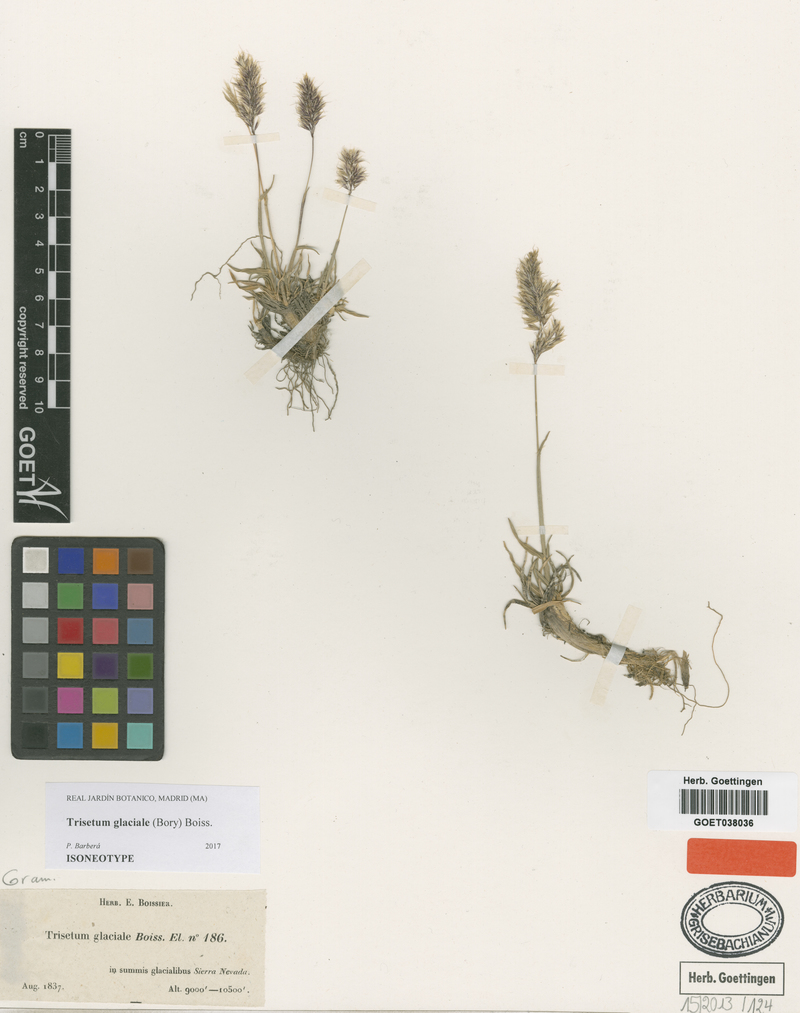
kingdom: Plantae
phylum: Tracheophyta
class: Liliopsida
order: Poales
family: Poaceae
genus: Acrospelion
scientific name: Acrospelion glaciale
